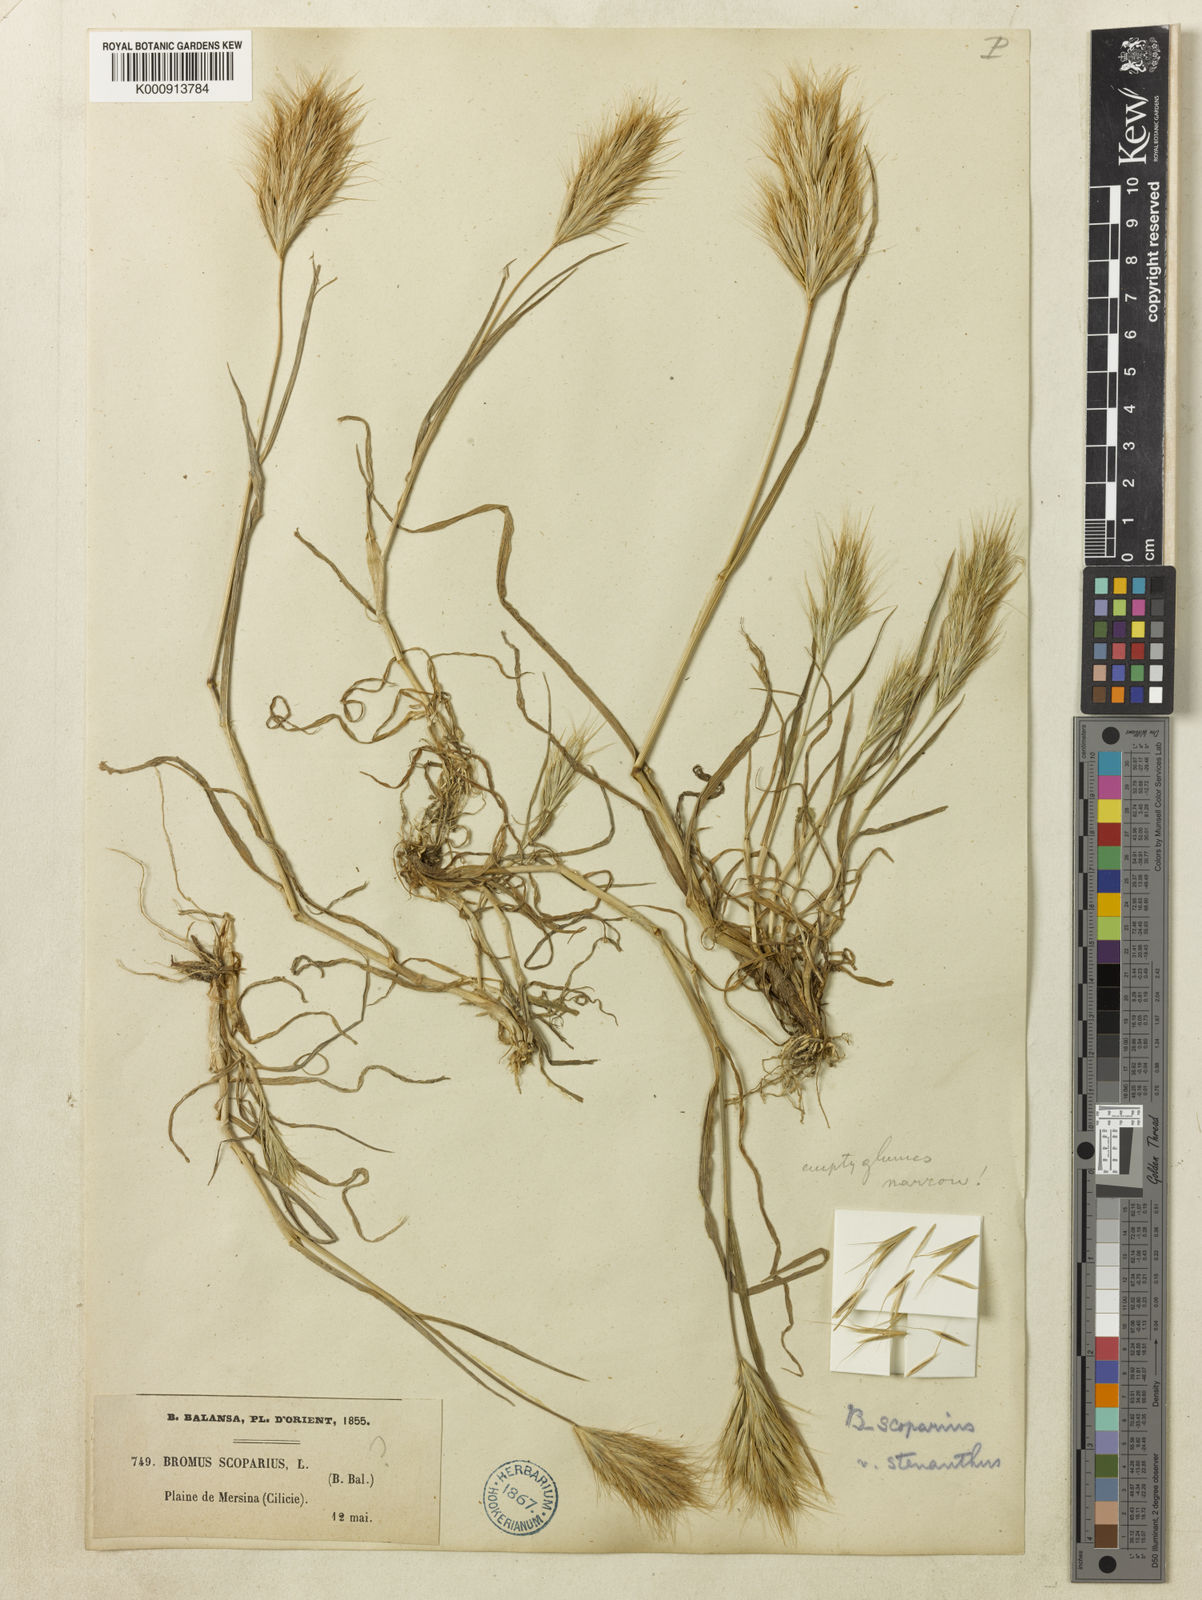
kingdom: Plantae
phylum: Tracheophyta
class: Liliopsida
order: Poales
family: Poaceae
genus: Bromus
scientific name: Bromus scoparius
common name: Broom brome
